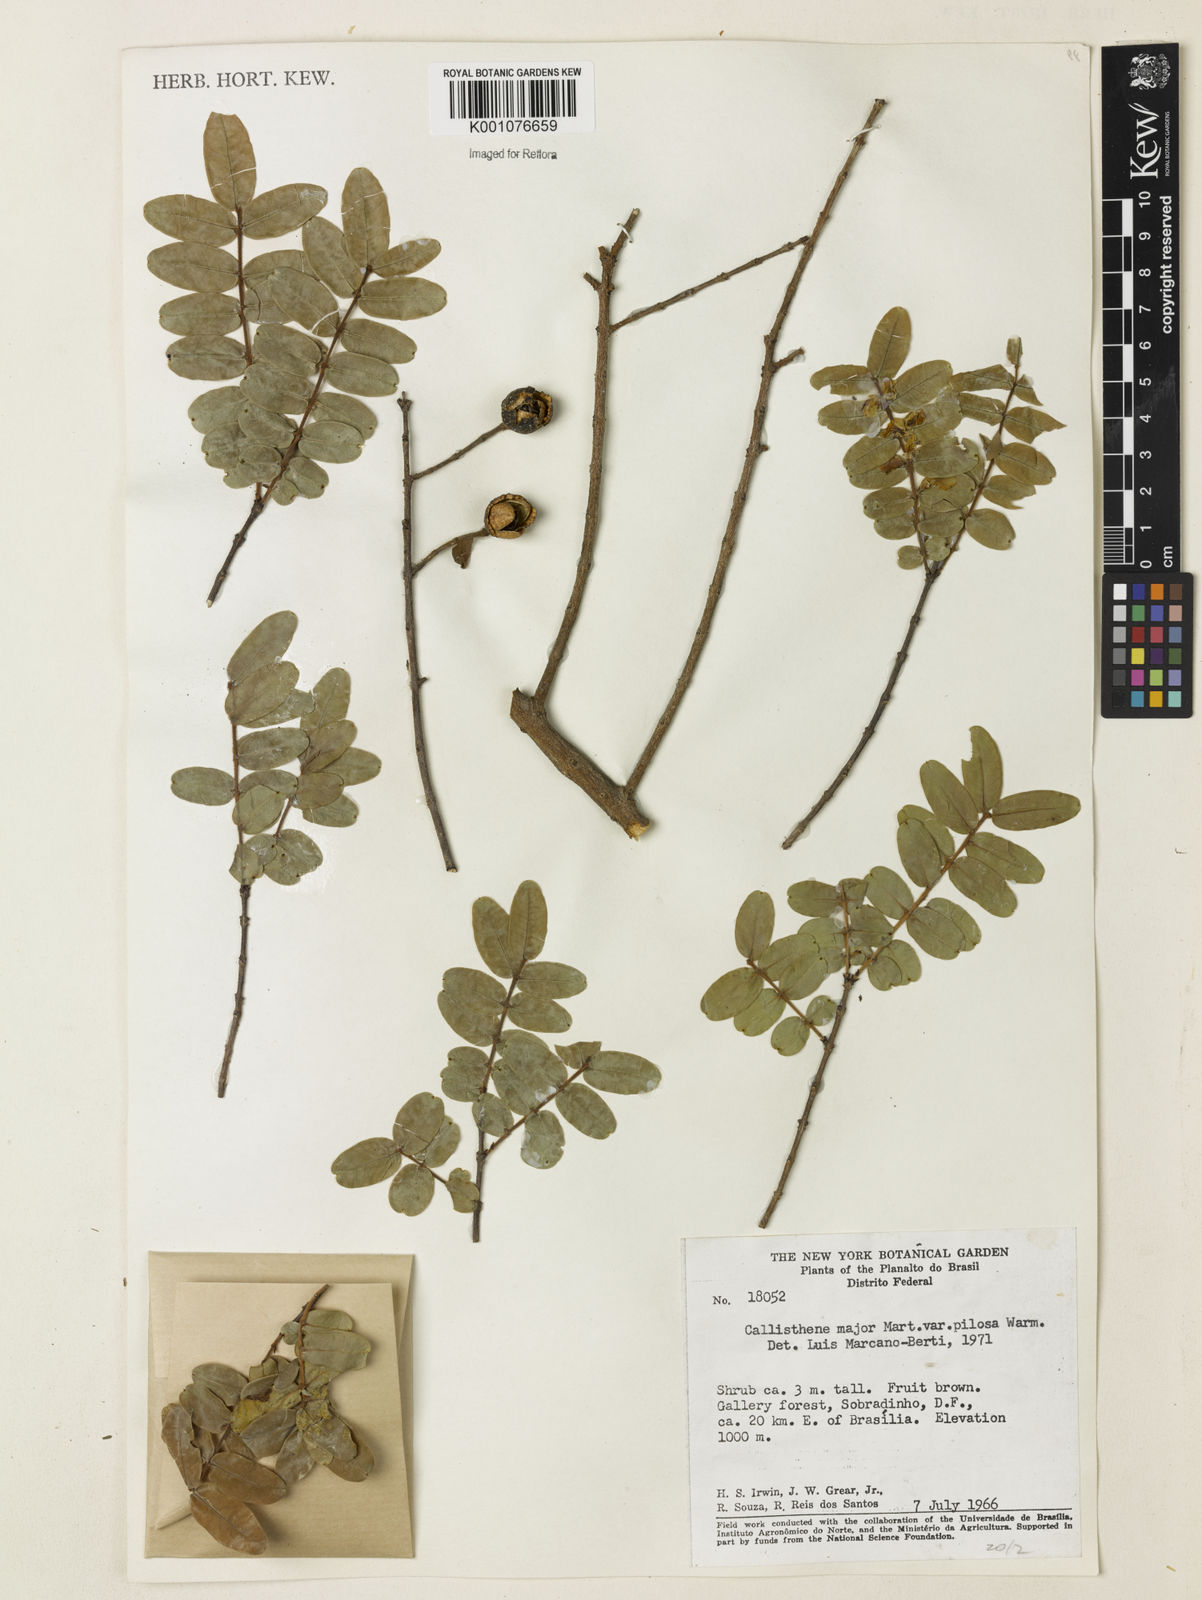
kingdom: Plantae
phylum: Tracheophyta
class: Magnoliopsida
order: Myrtales
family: Vochysiaceae
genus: Callisthene
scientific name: Callisthene major
